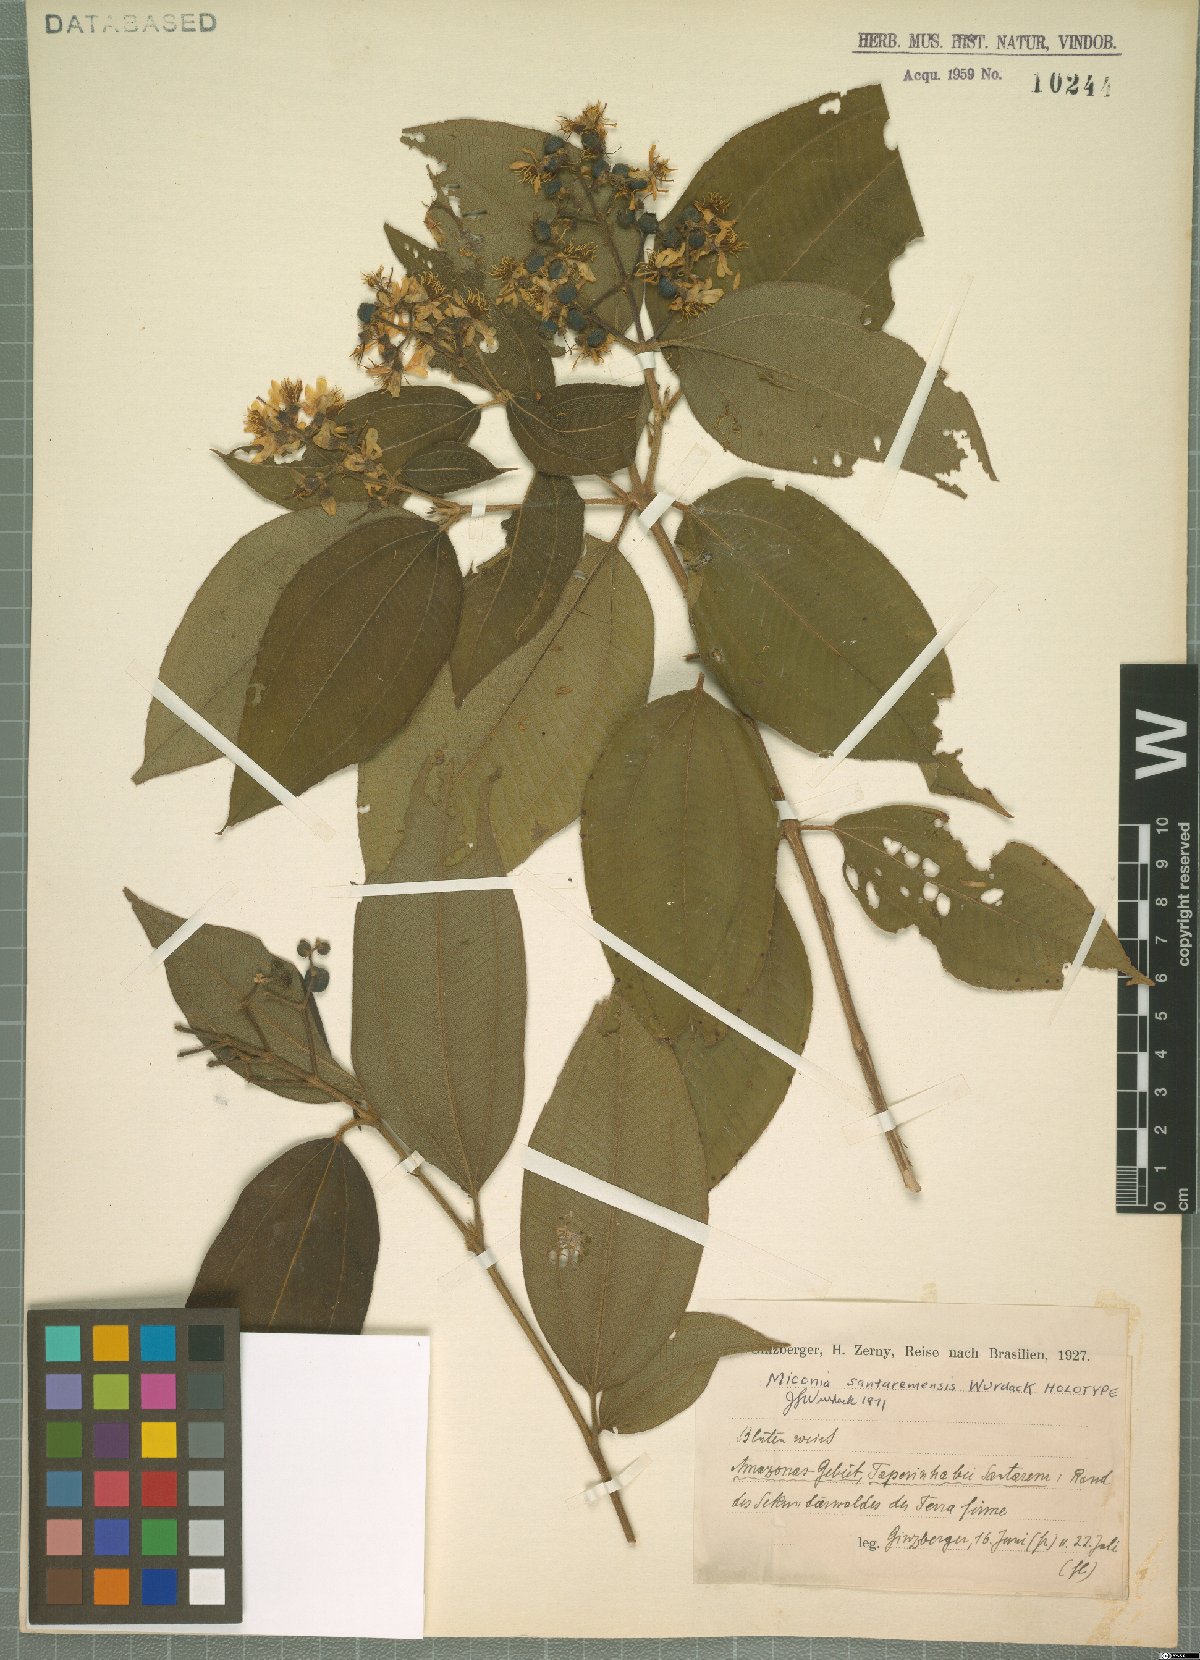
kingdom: Plantae
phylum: Tracheophyta
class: Magnoliopsida
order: Myrtales
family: Melastomataceae
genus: Miconia
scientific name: Miconia santaremensis
